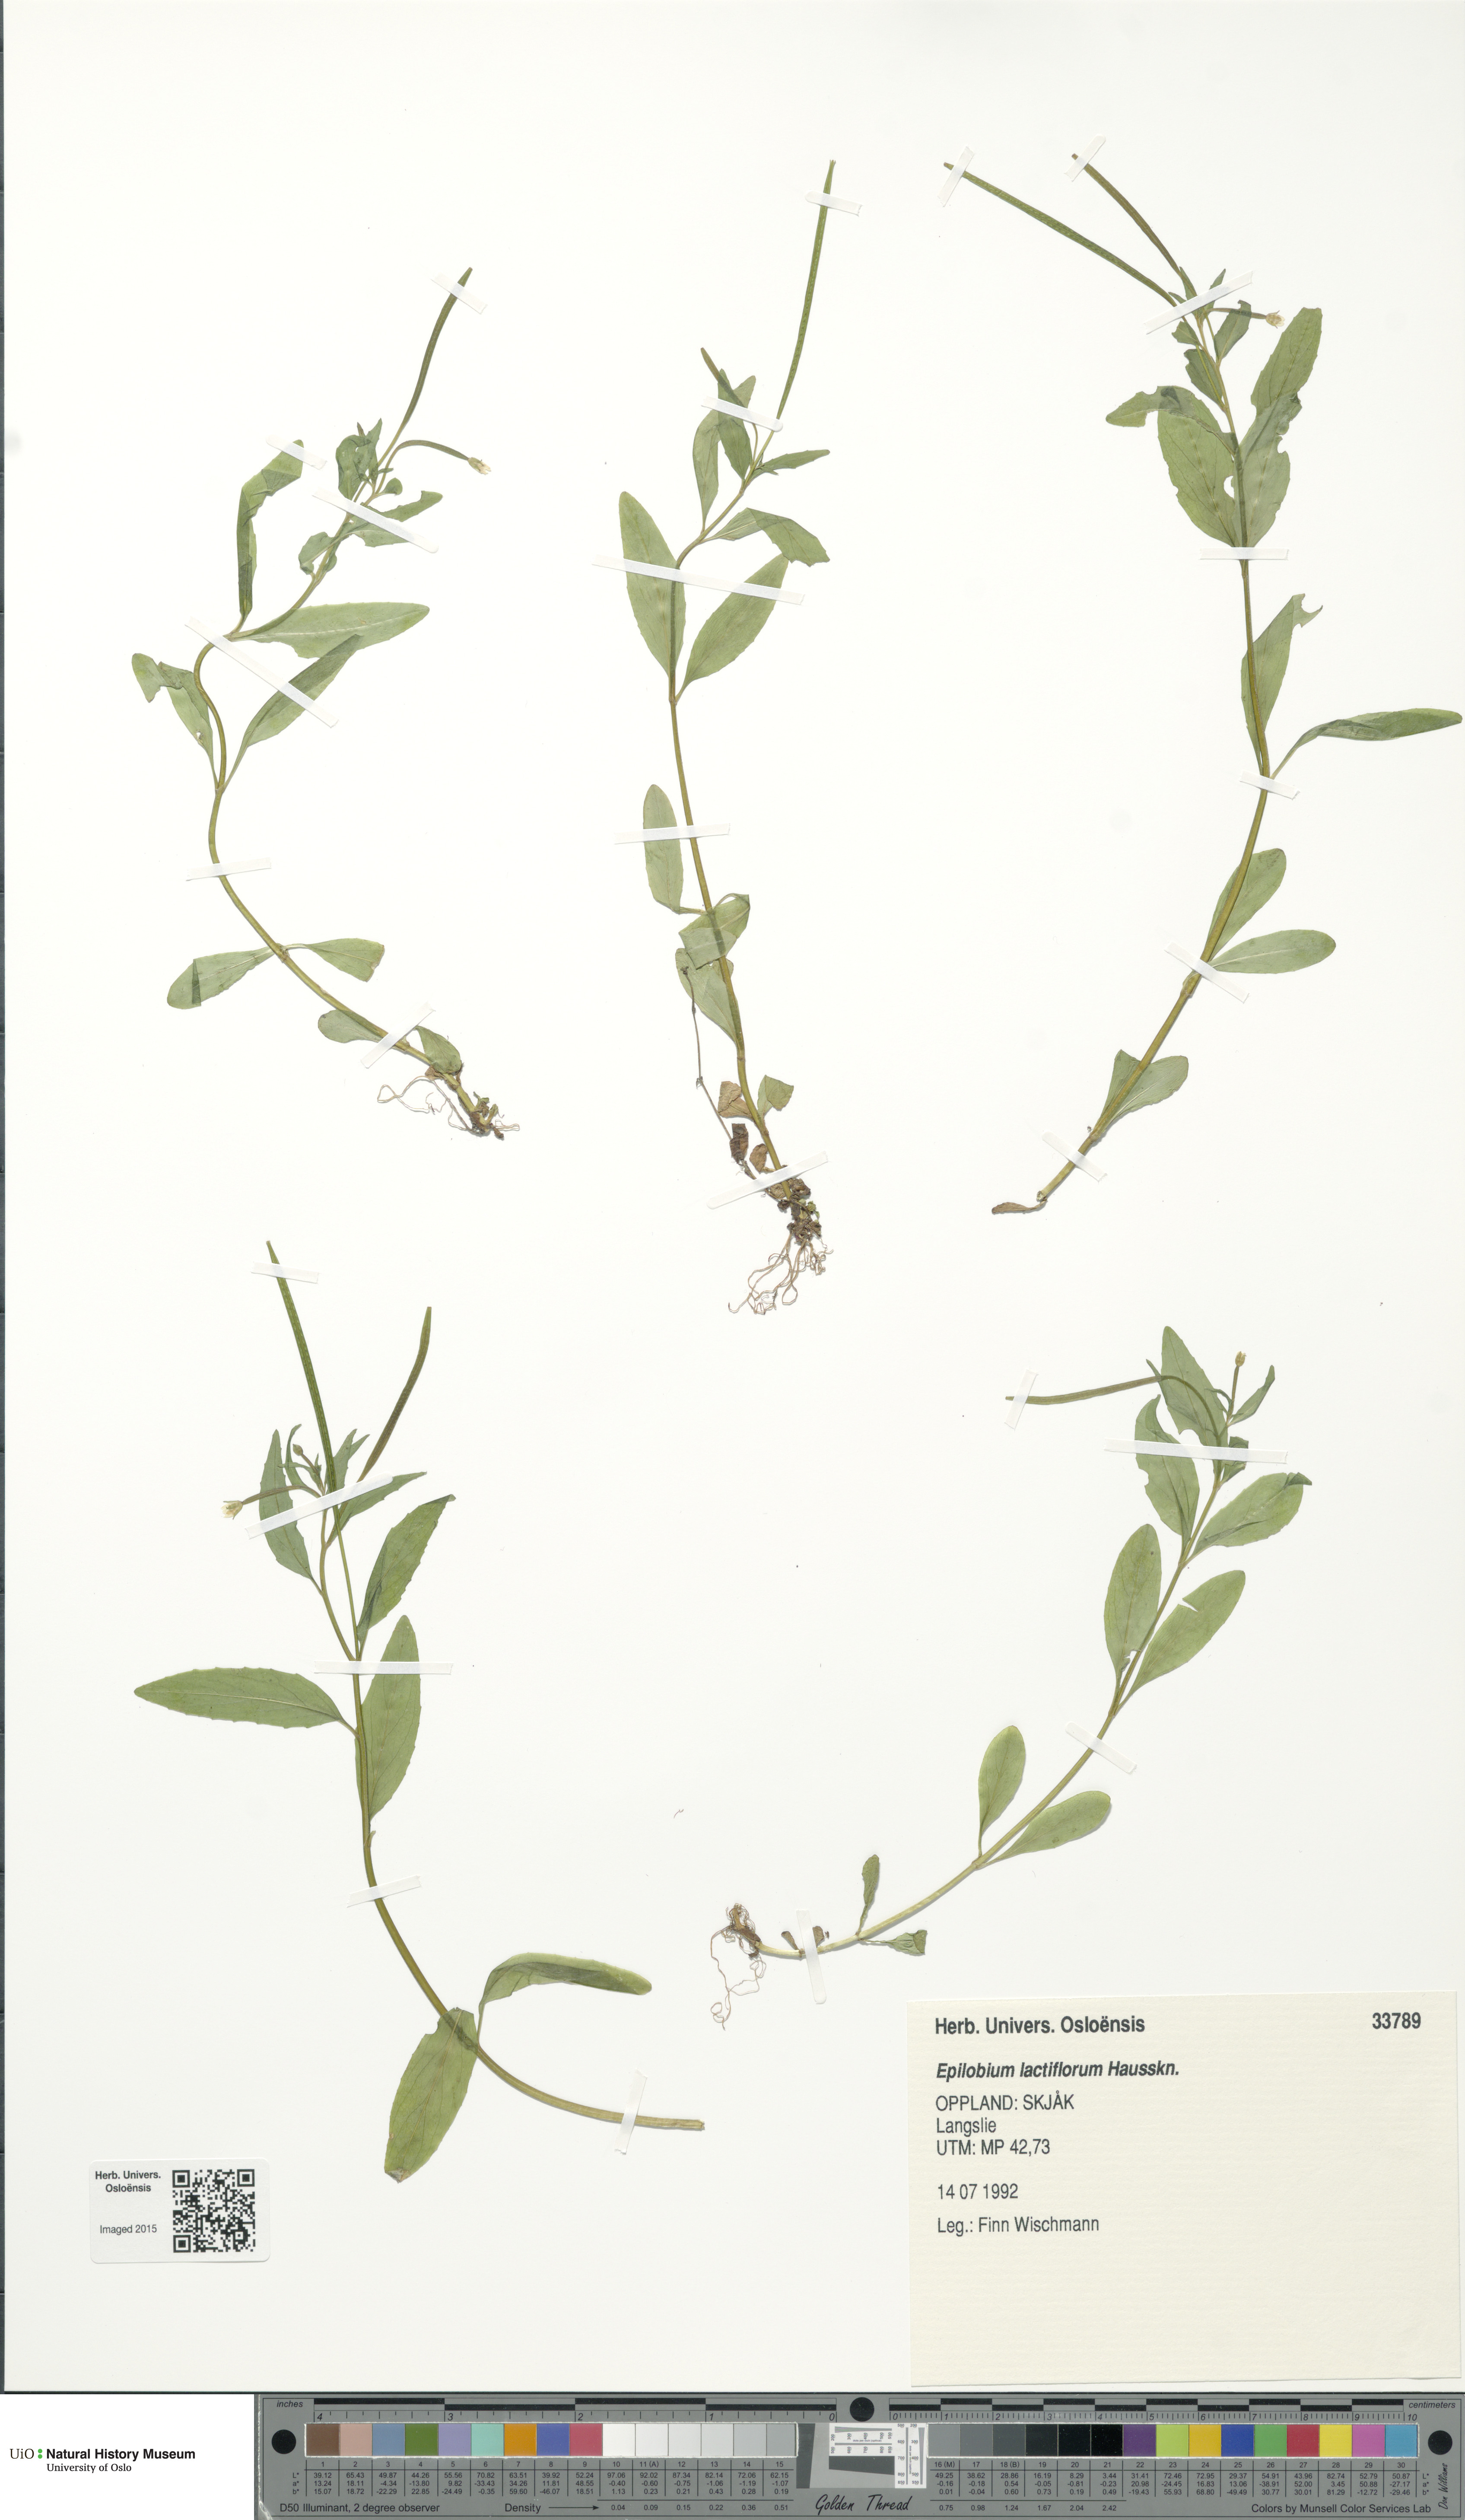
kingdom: Plantae
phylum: Tracheophyta
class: Magnoliopsida
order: Myrtales
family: Onagraceae
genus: Epilobium
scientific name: Epilobium lactiflorum
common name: Milkflower willowherb
